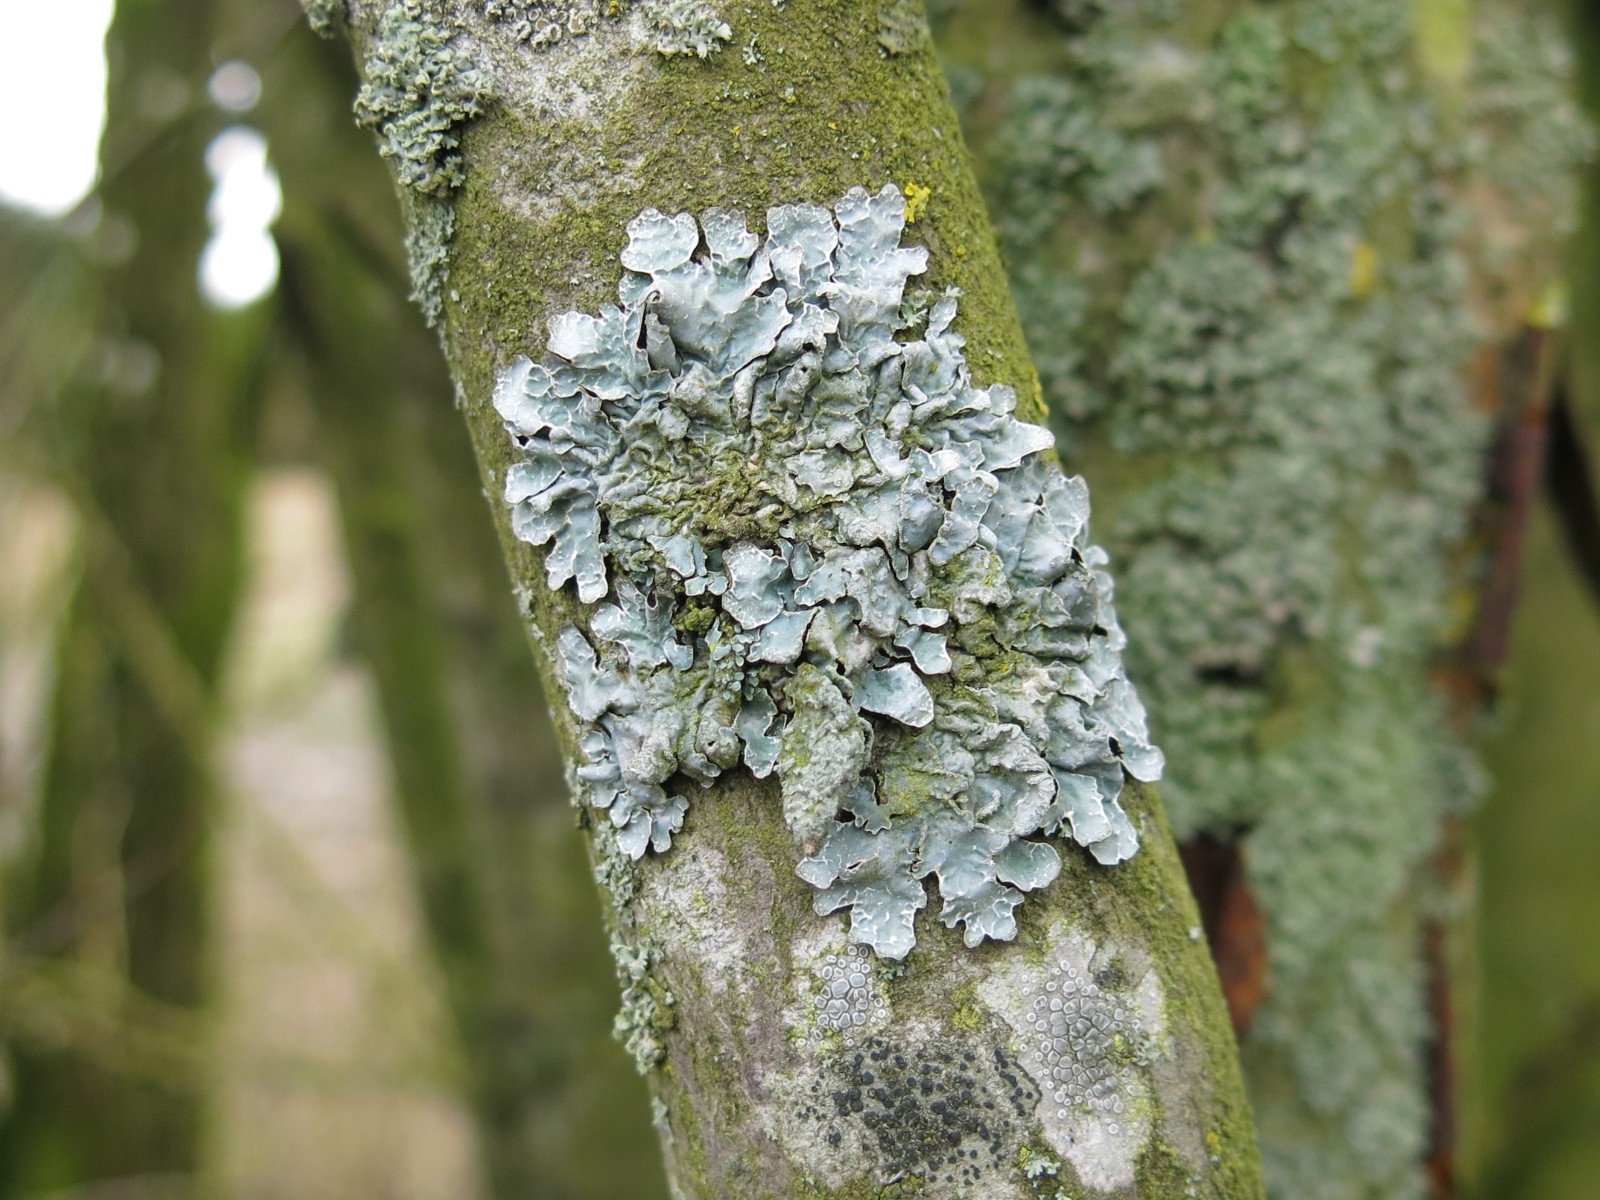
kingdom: Fungi
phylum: Ascomycota
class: Lecanoromycetes
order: Lecanorales
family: Parmeliaceae
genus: Parmelia
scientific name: Parmelia sulcata
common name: rynket skållav
